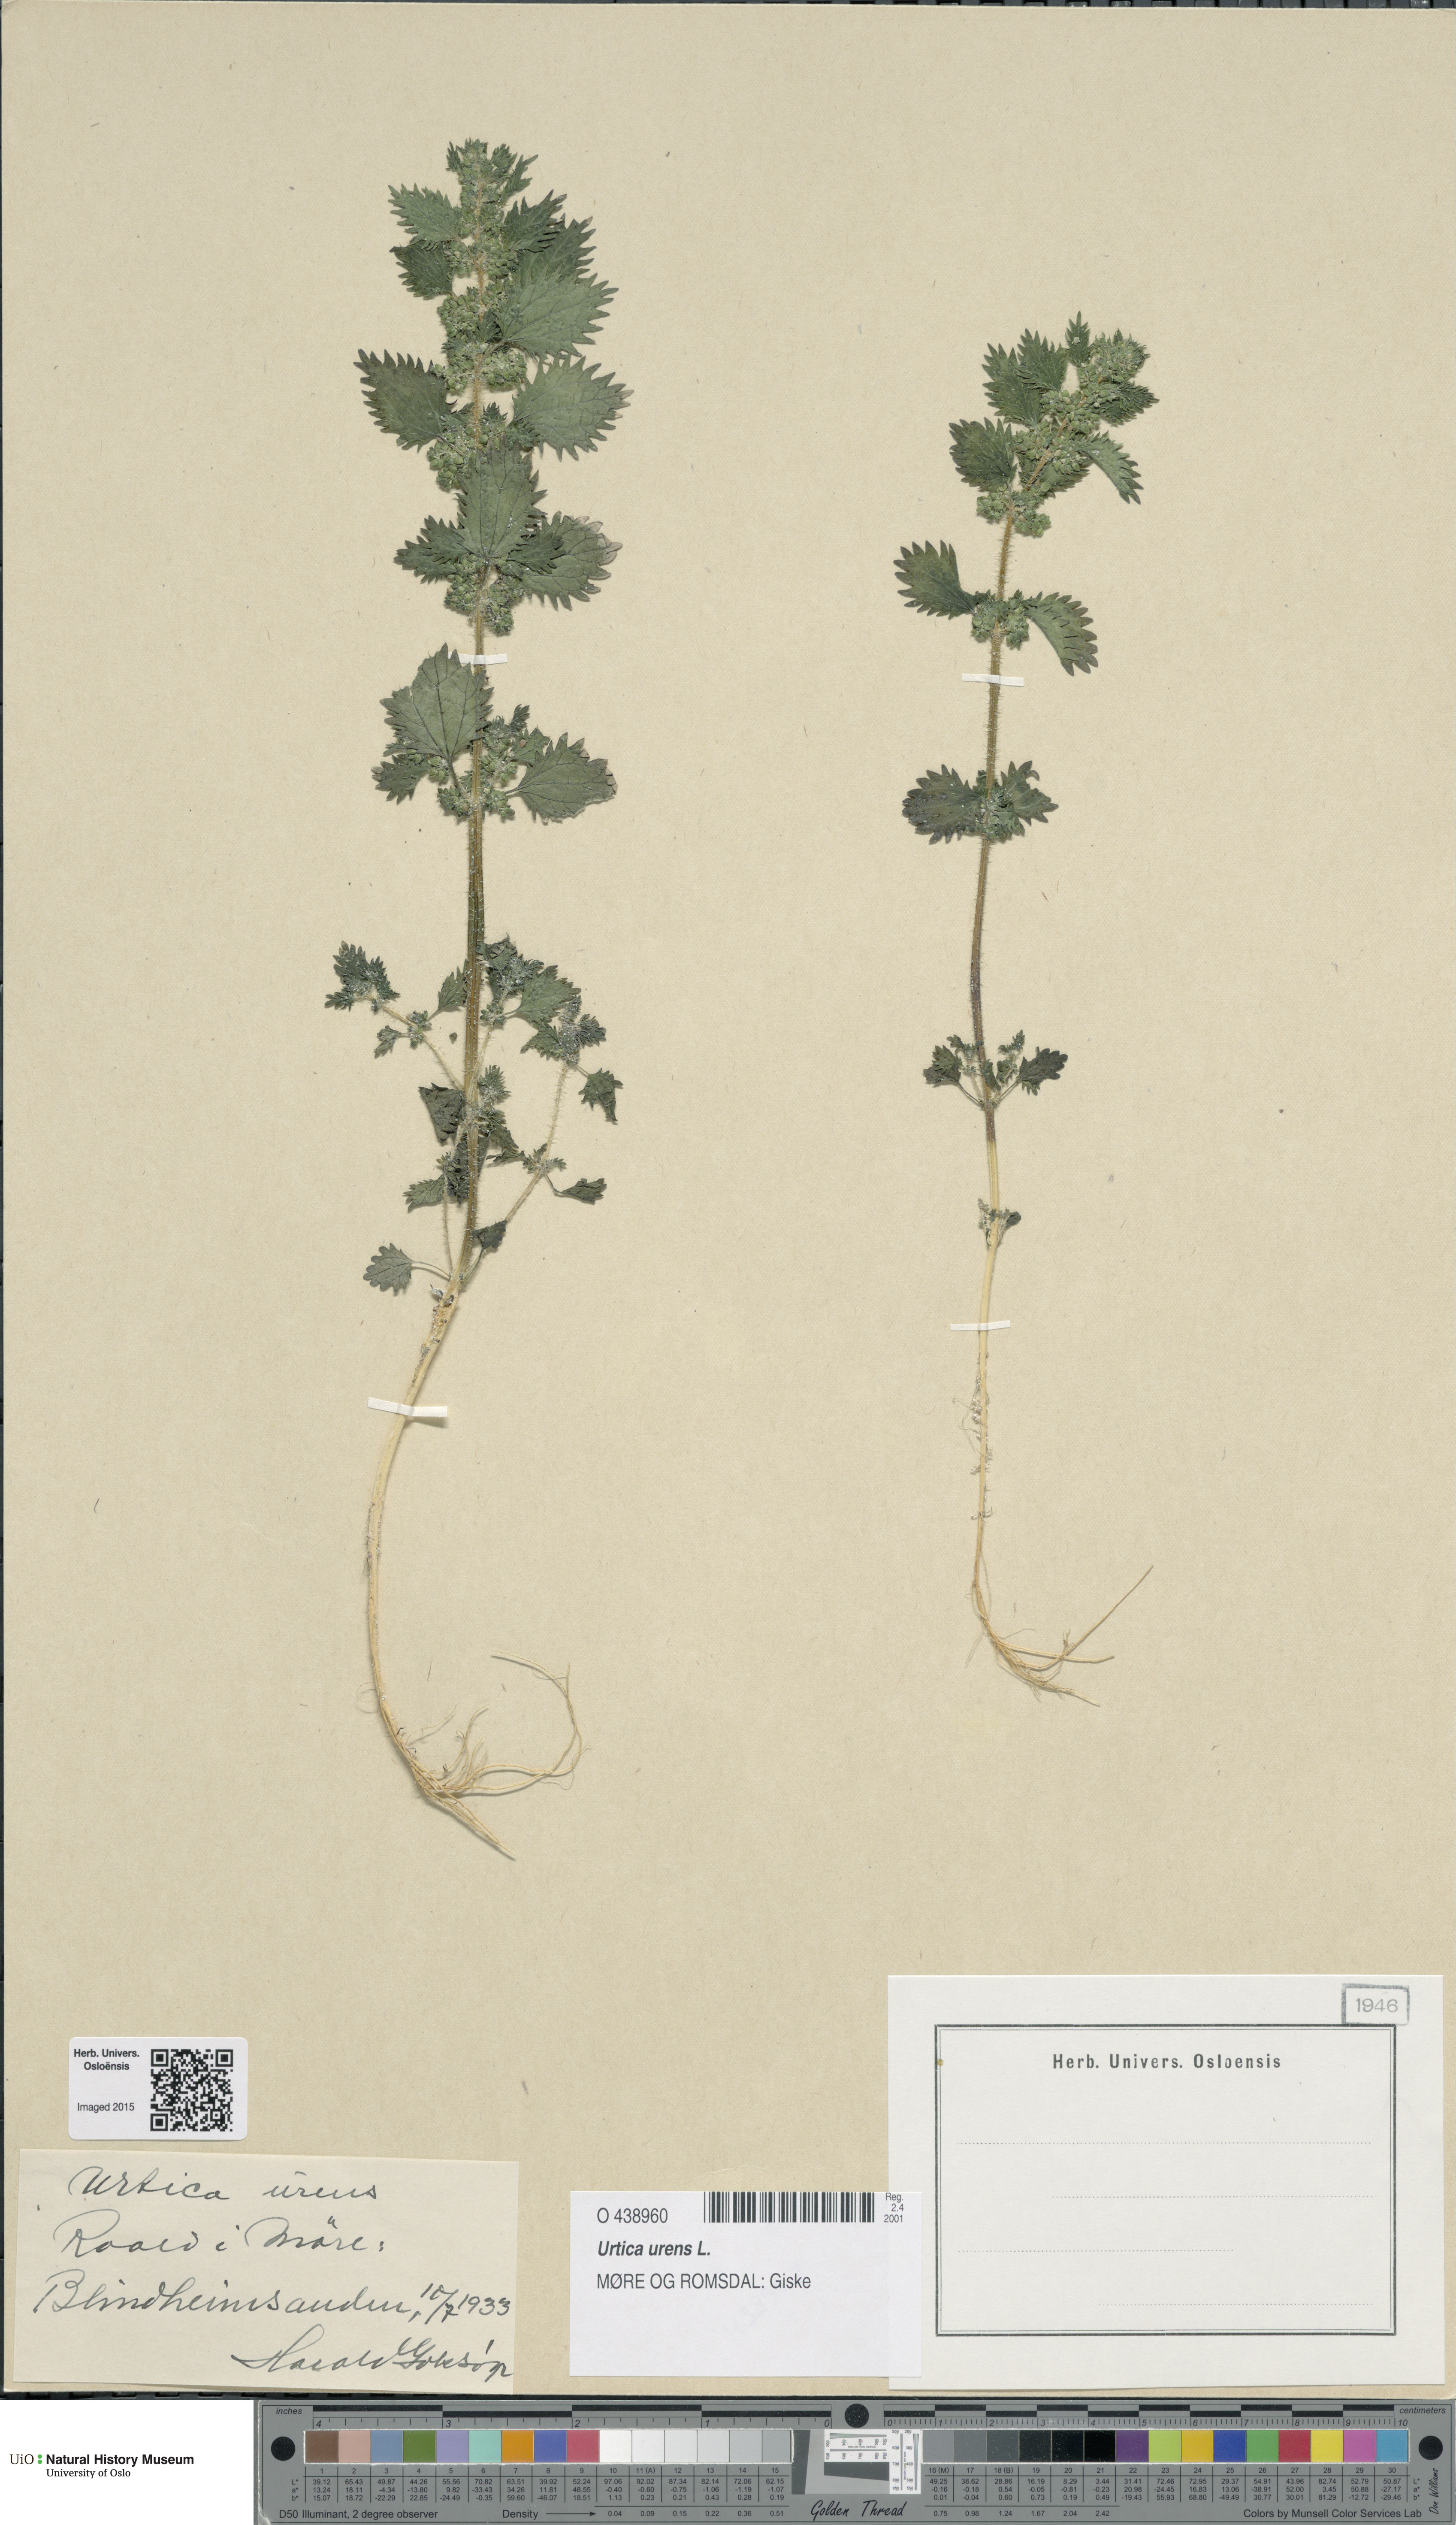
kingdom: Plantae
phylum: Tracheophyta
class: Magnoliopsida
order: Rosales
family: Urticaceae
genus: Urtica
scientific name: Urtica urens
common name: Dwarf nettle
